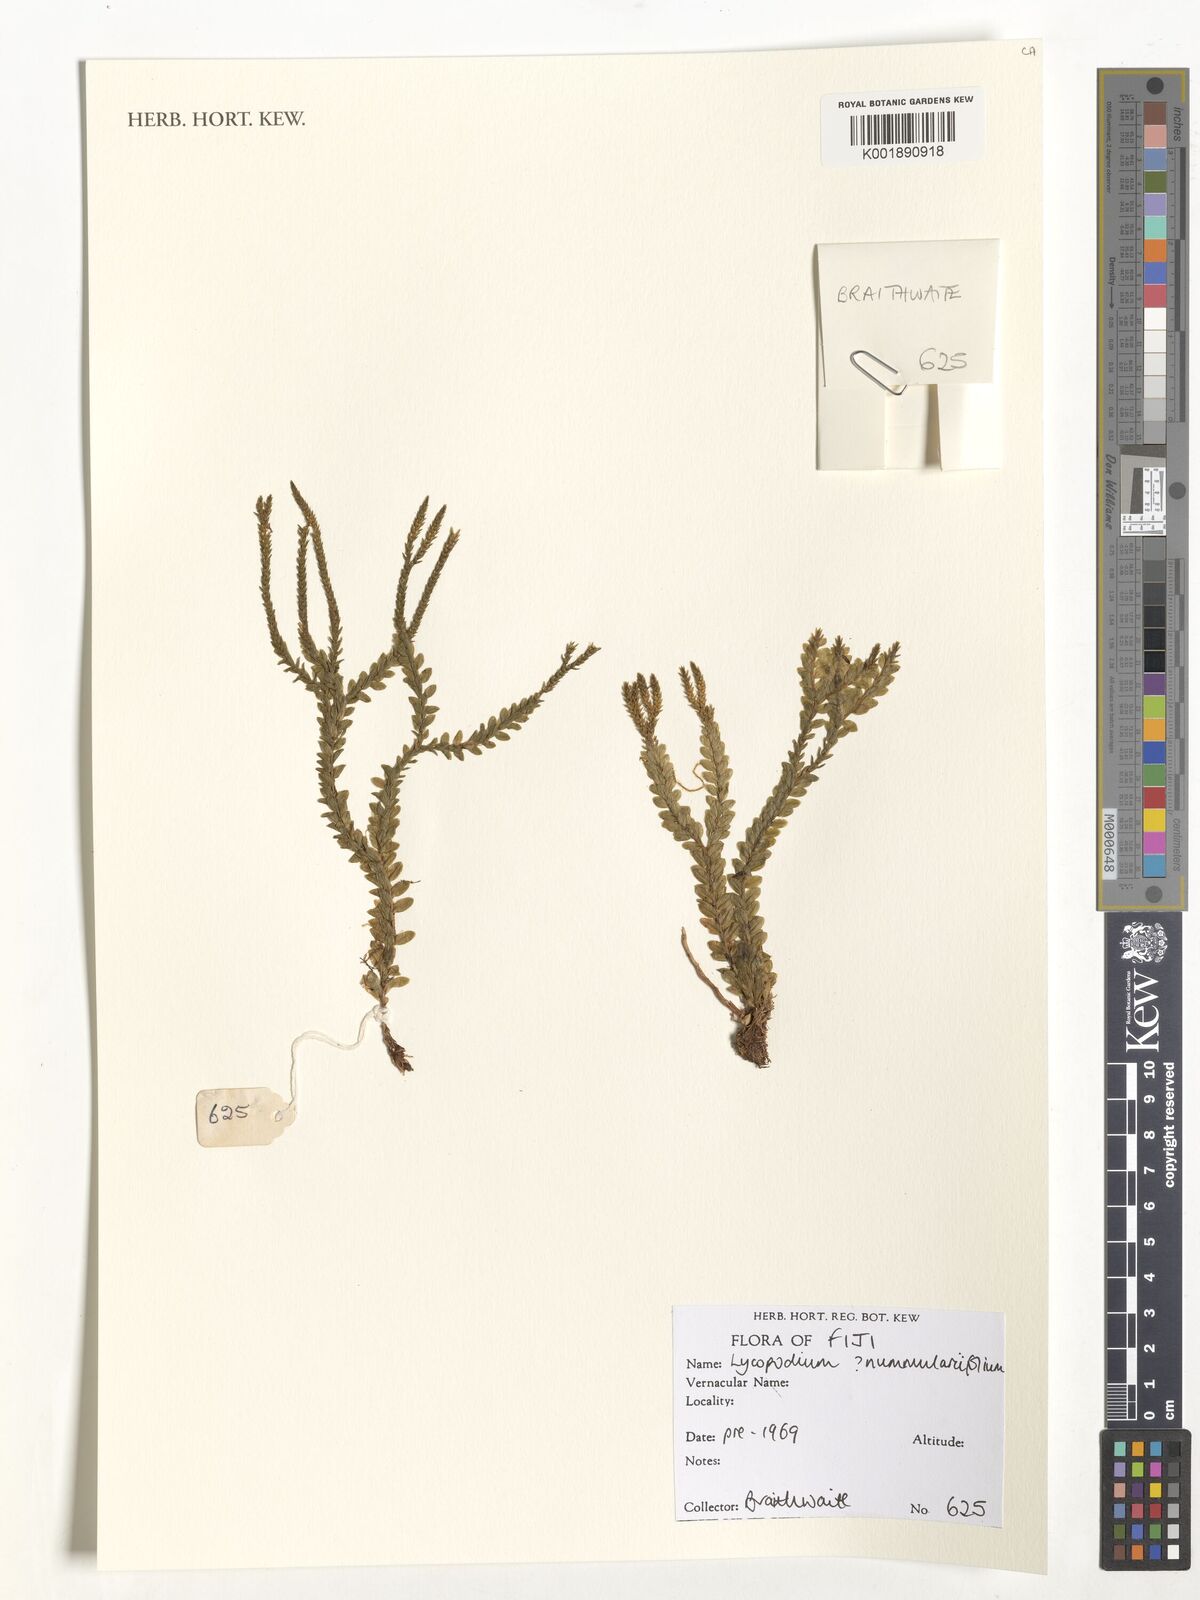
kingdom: Plantae
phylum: Tracheophyta
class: Lycopodiopsida
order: Lycopodiales
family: Lycopodiaceae
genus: Phlegmariurus
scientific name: Phlegmariurus nummulariifolius
